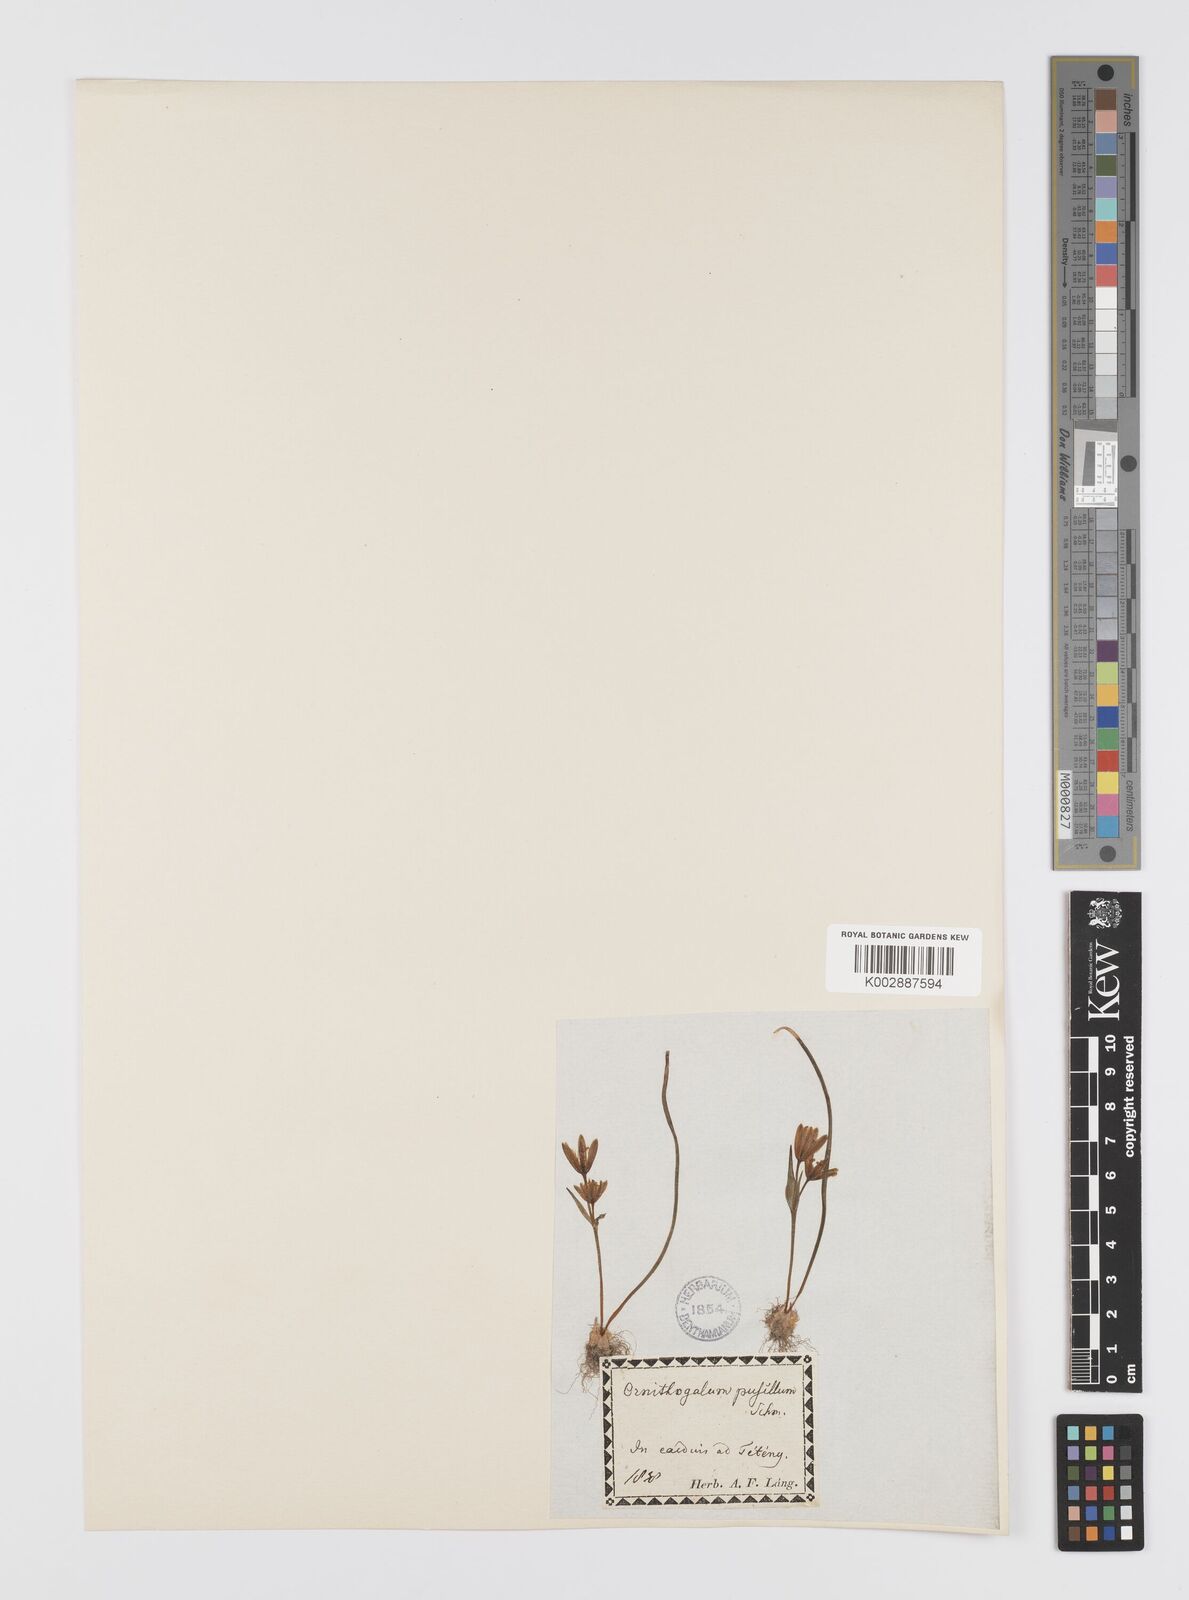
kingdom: Plantae
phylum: Tracheophyta
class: Liliopsida
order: Liliales
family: Liliaceae
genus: Gagea
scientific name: Gagea pusilla
